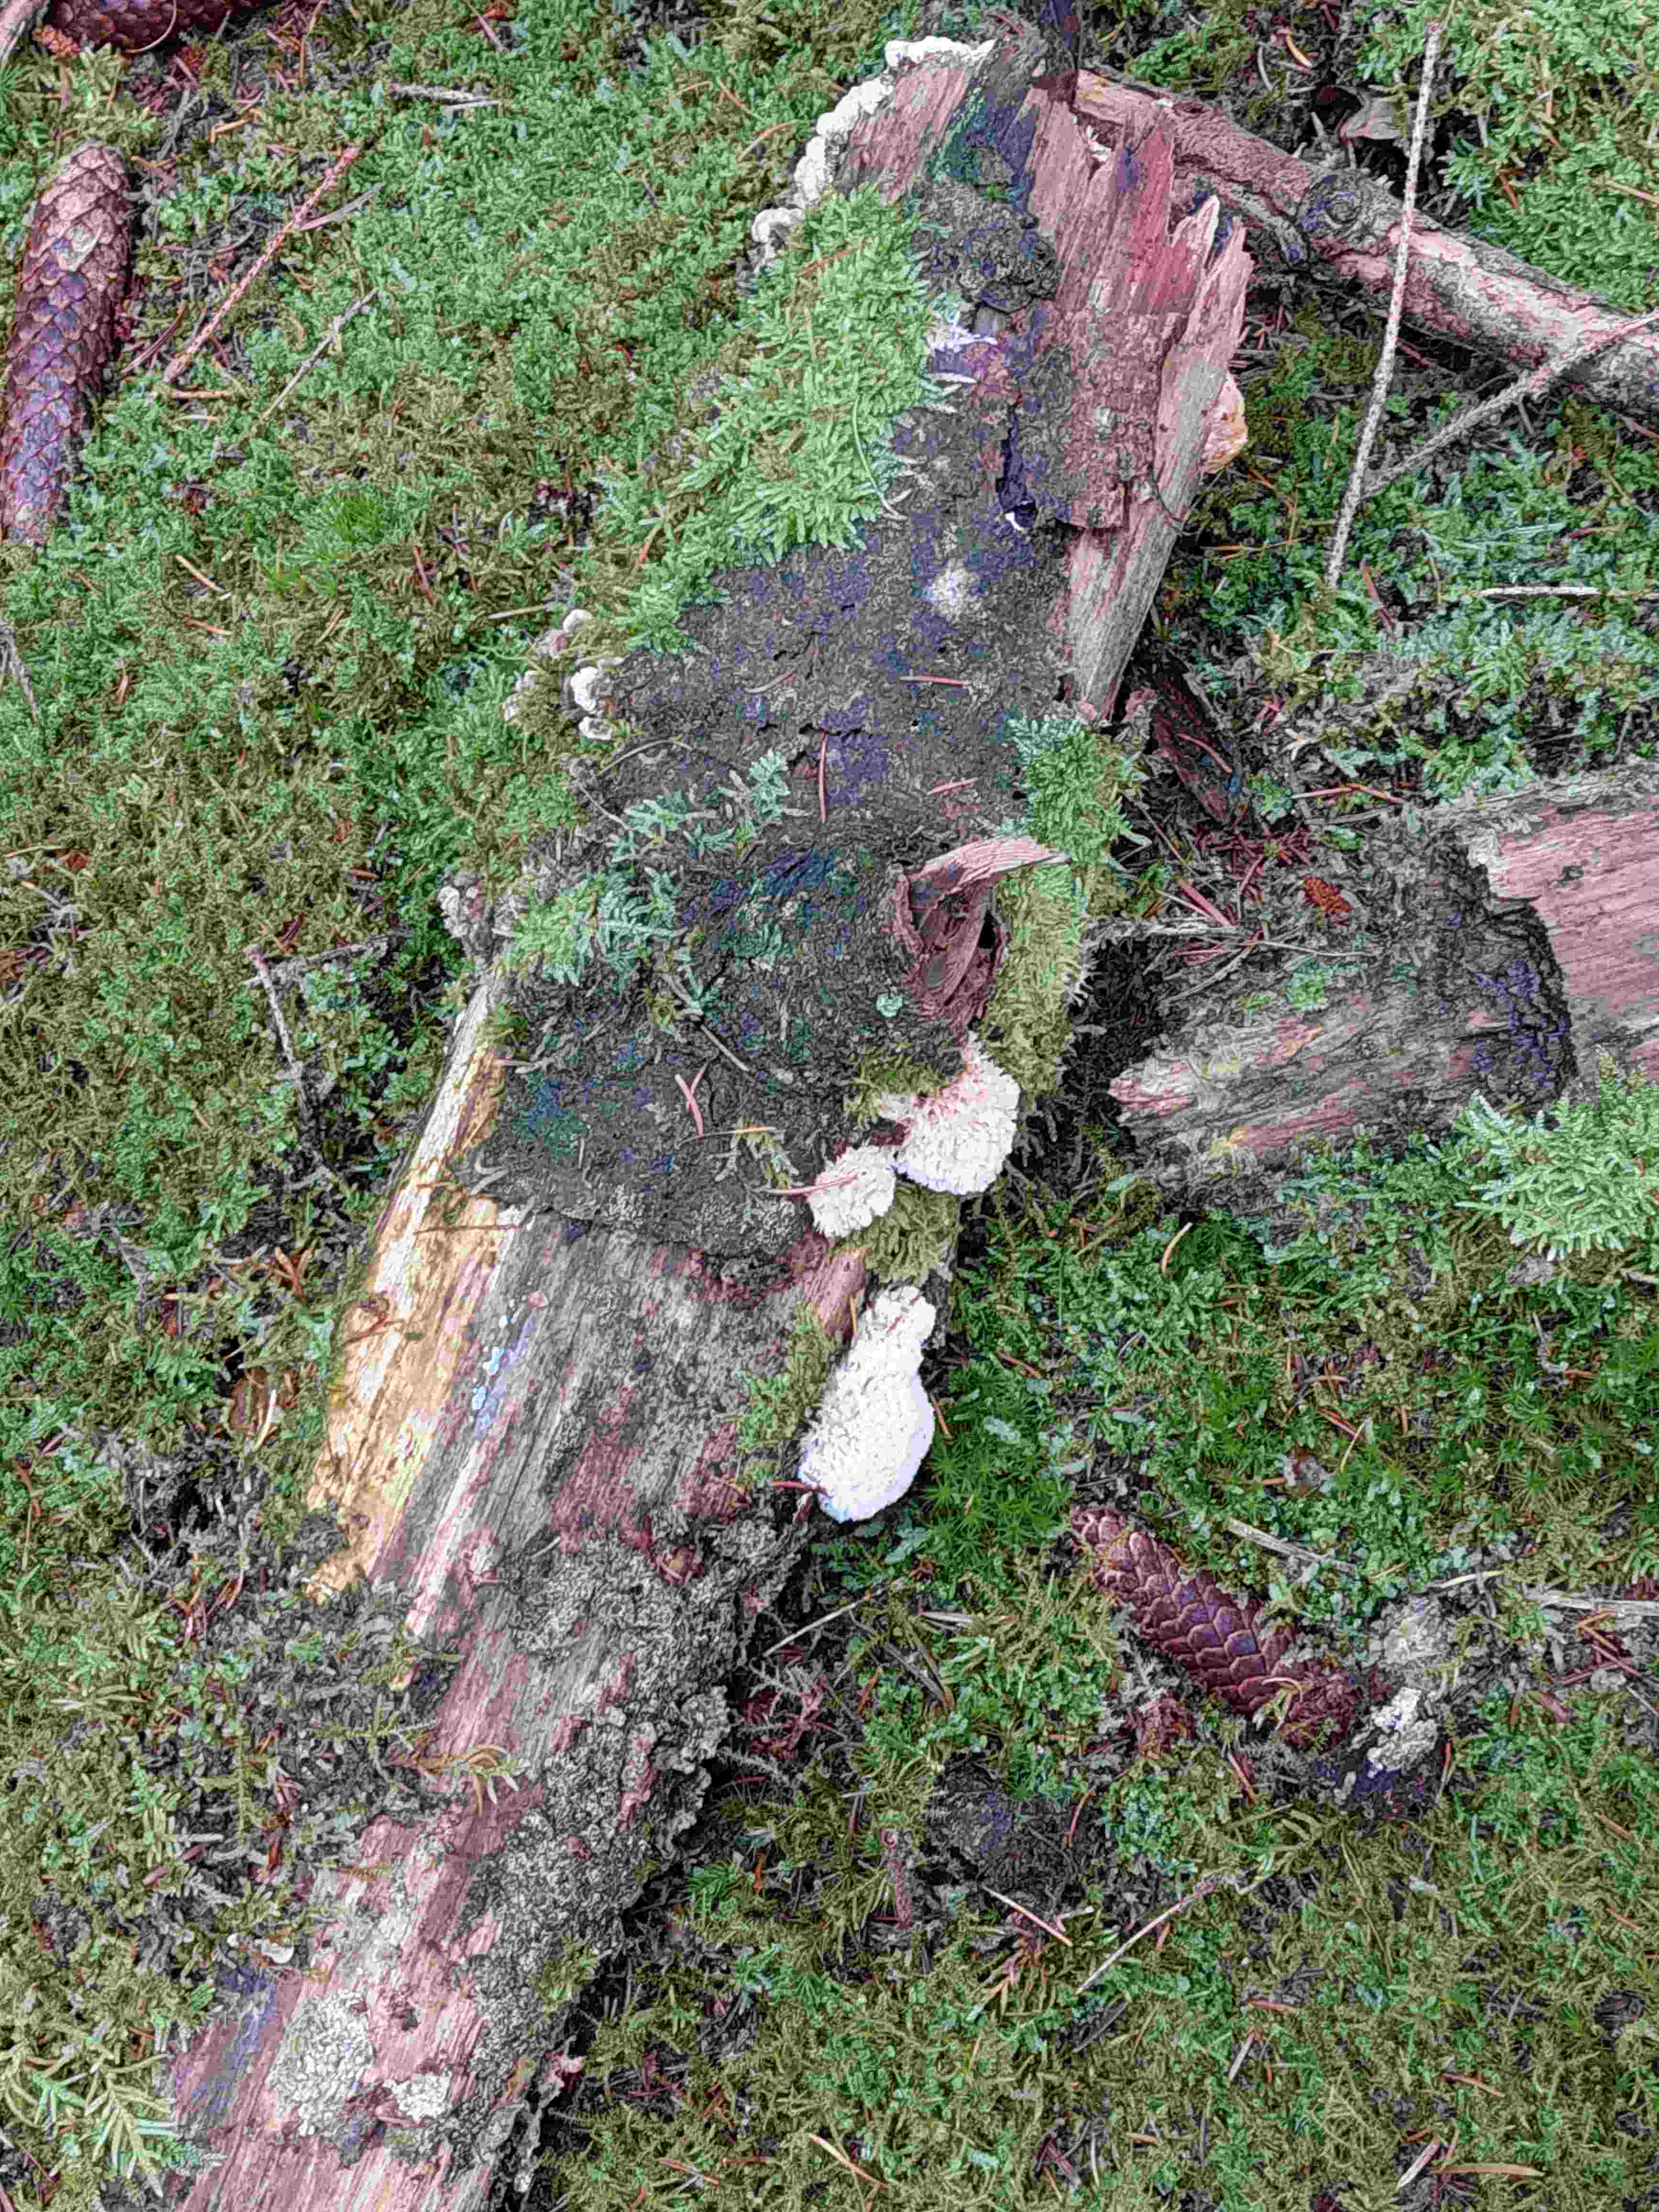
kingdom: Fungi
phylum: Basidiomycota
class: Agaricomycetes
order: Polyporales
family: Dacryobolaceae
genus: Postia
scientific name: Postia ptychogaster
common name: støvende kødporesvamp
